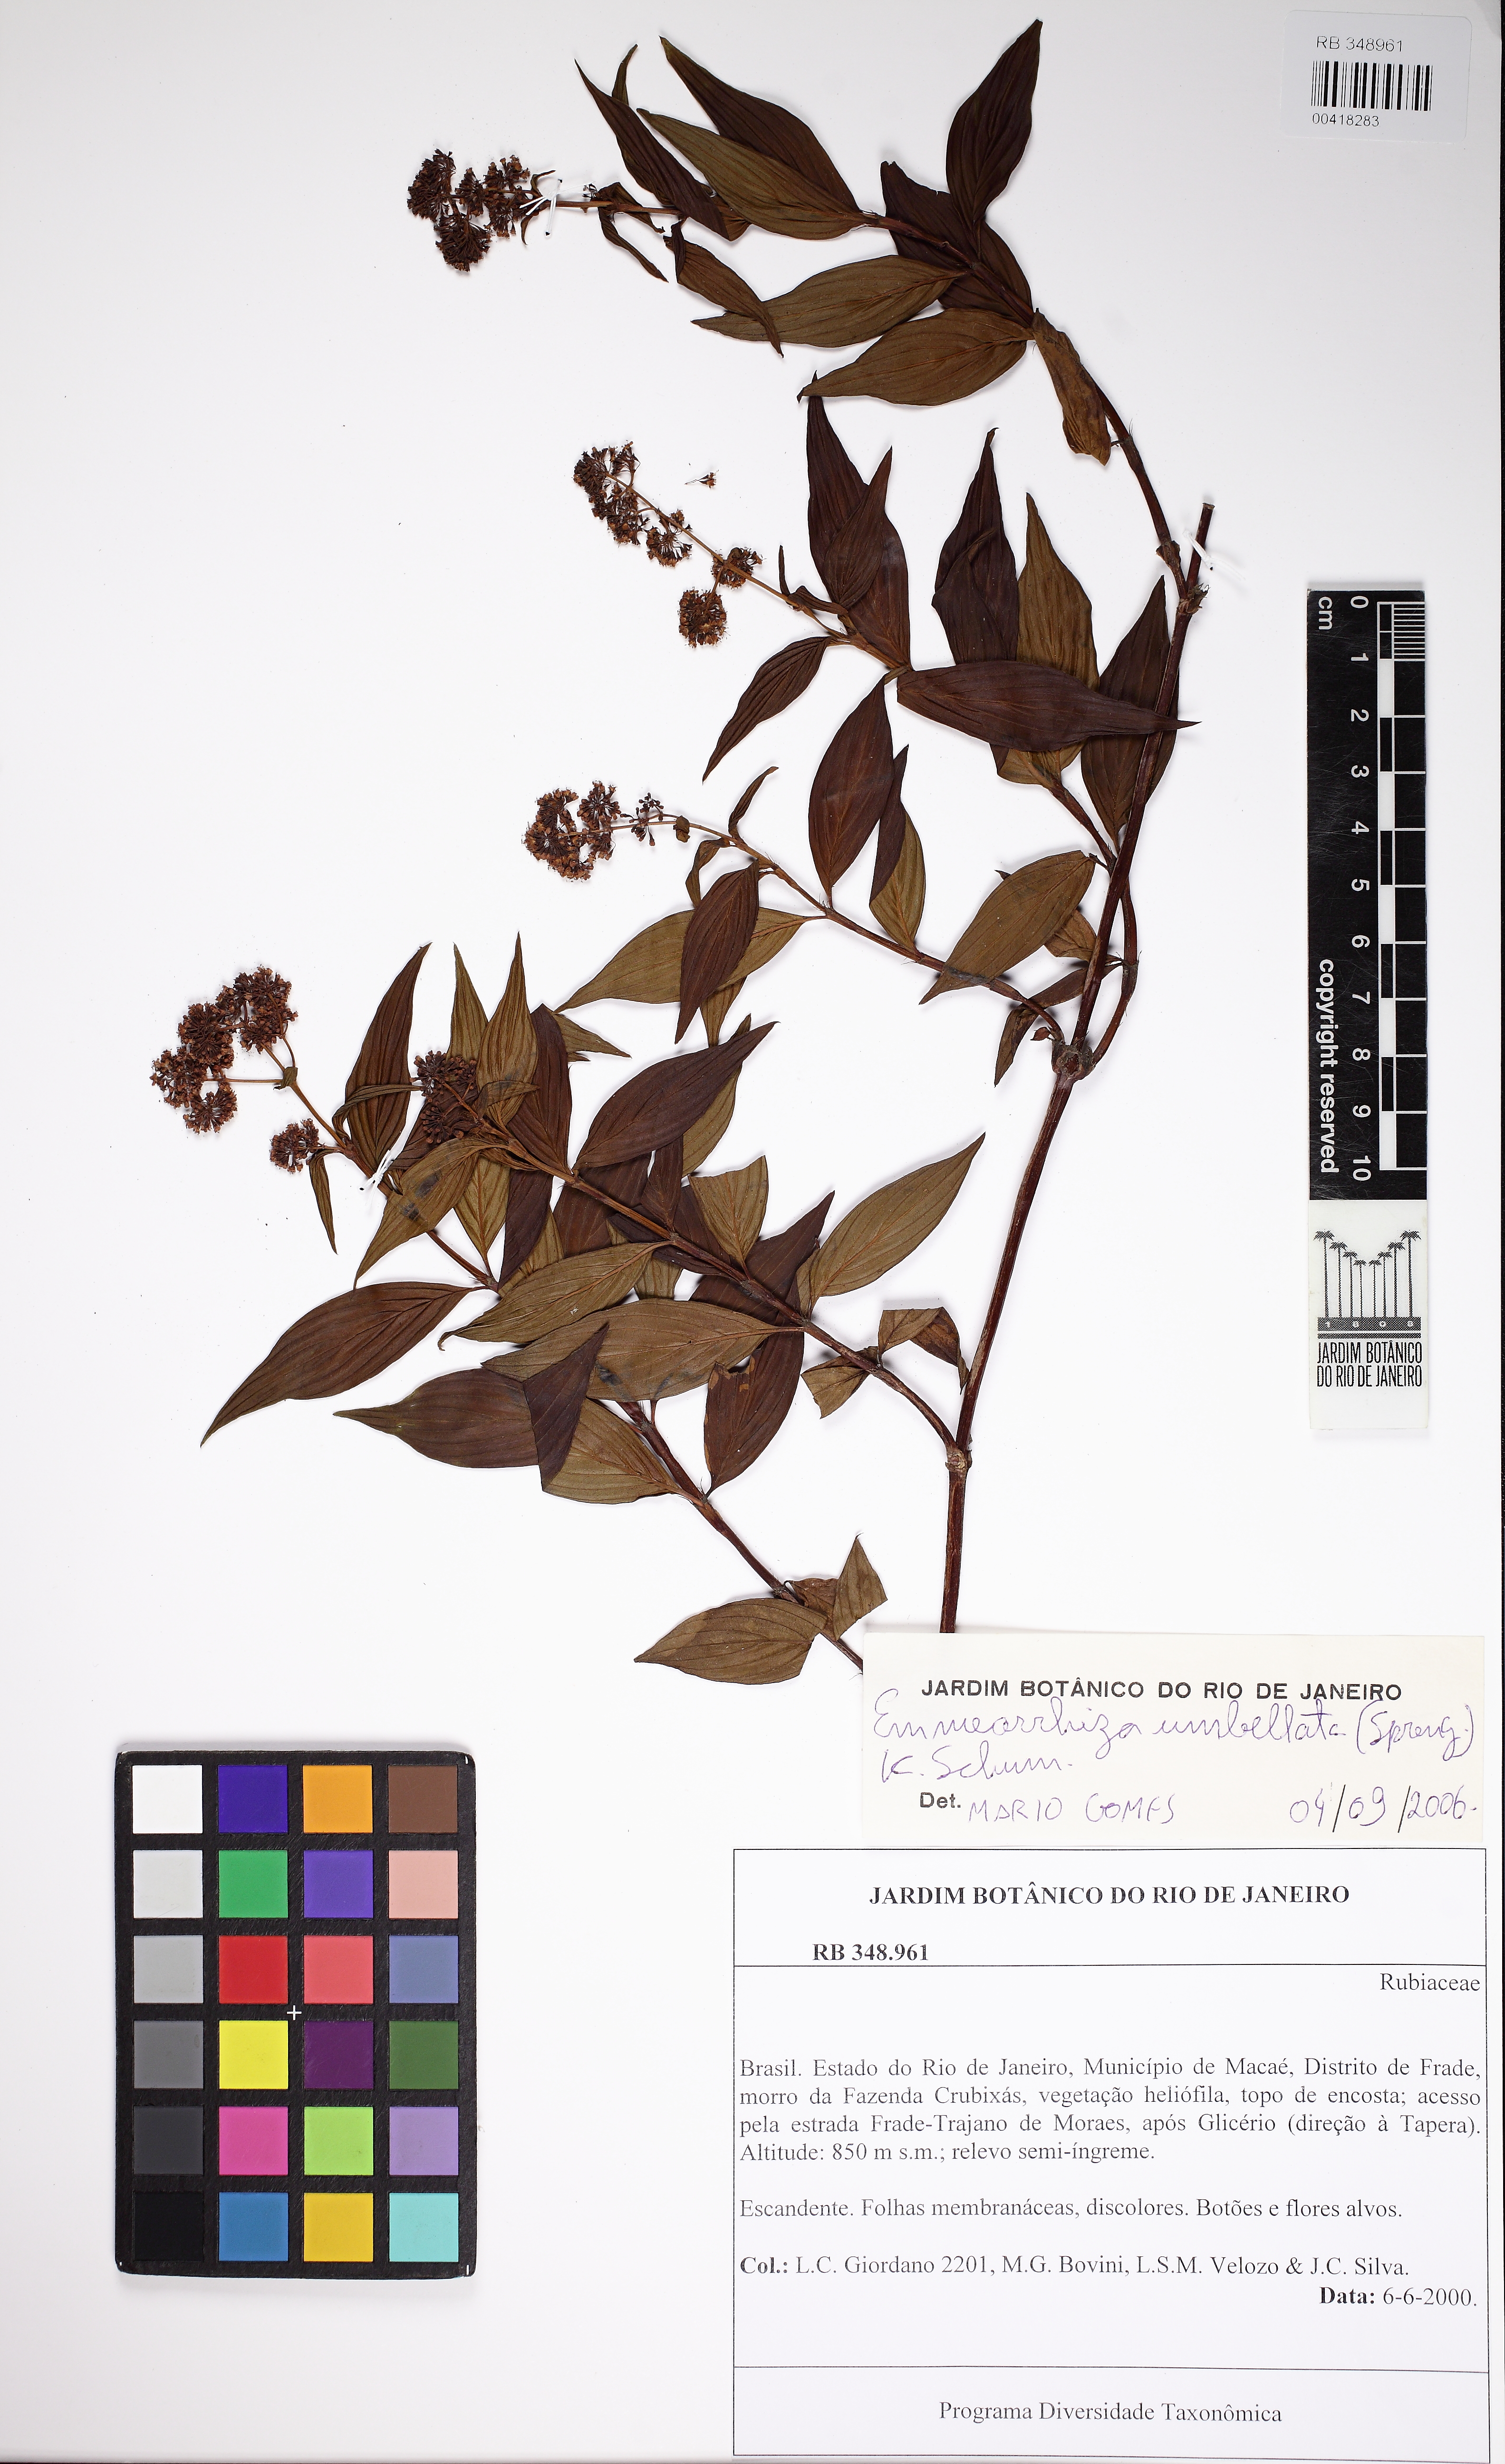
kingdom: Plantae
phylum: Tracheophyta
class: Magnoliopsida
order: Gentianales
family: Rubiaceae
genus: Emmeorhiza
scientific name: Emmeorhiza umbellata
